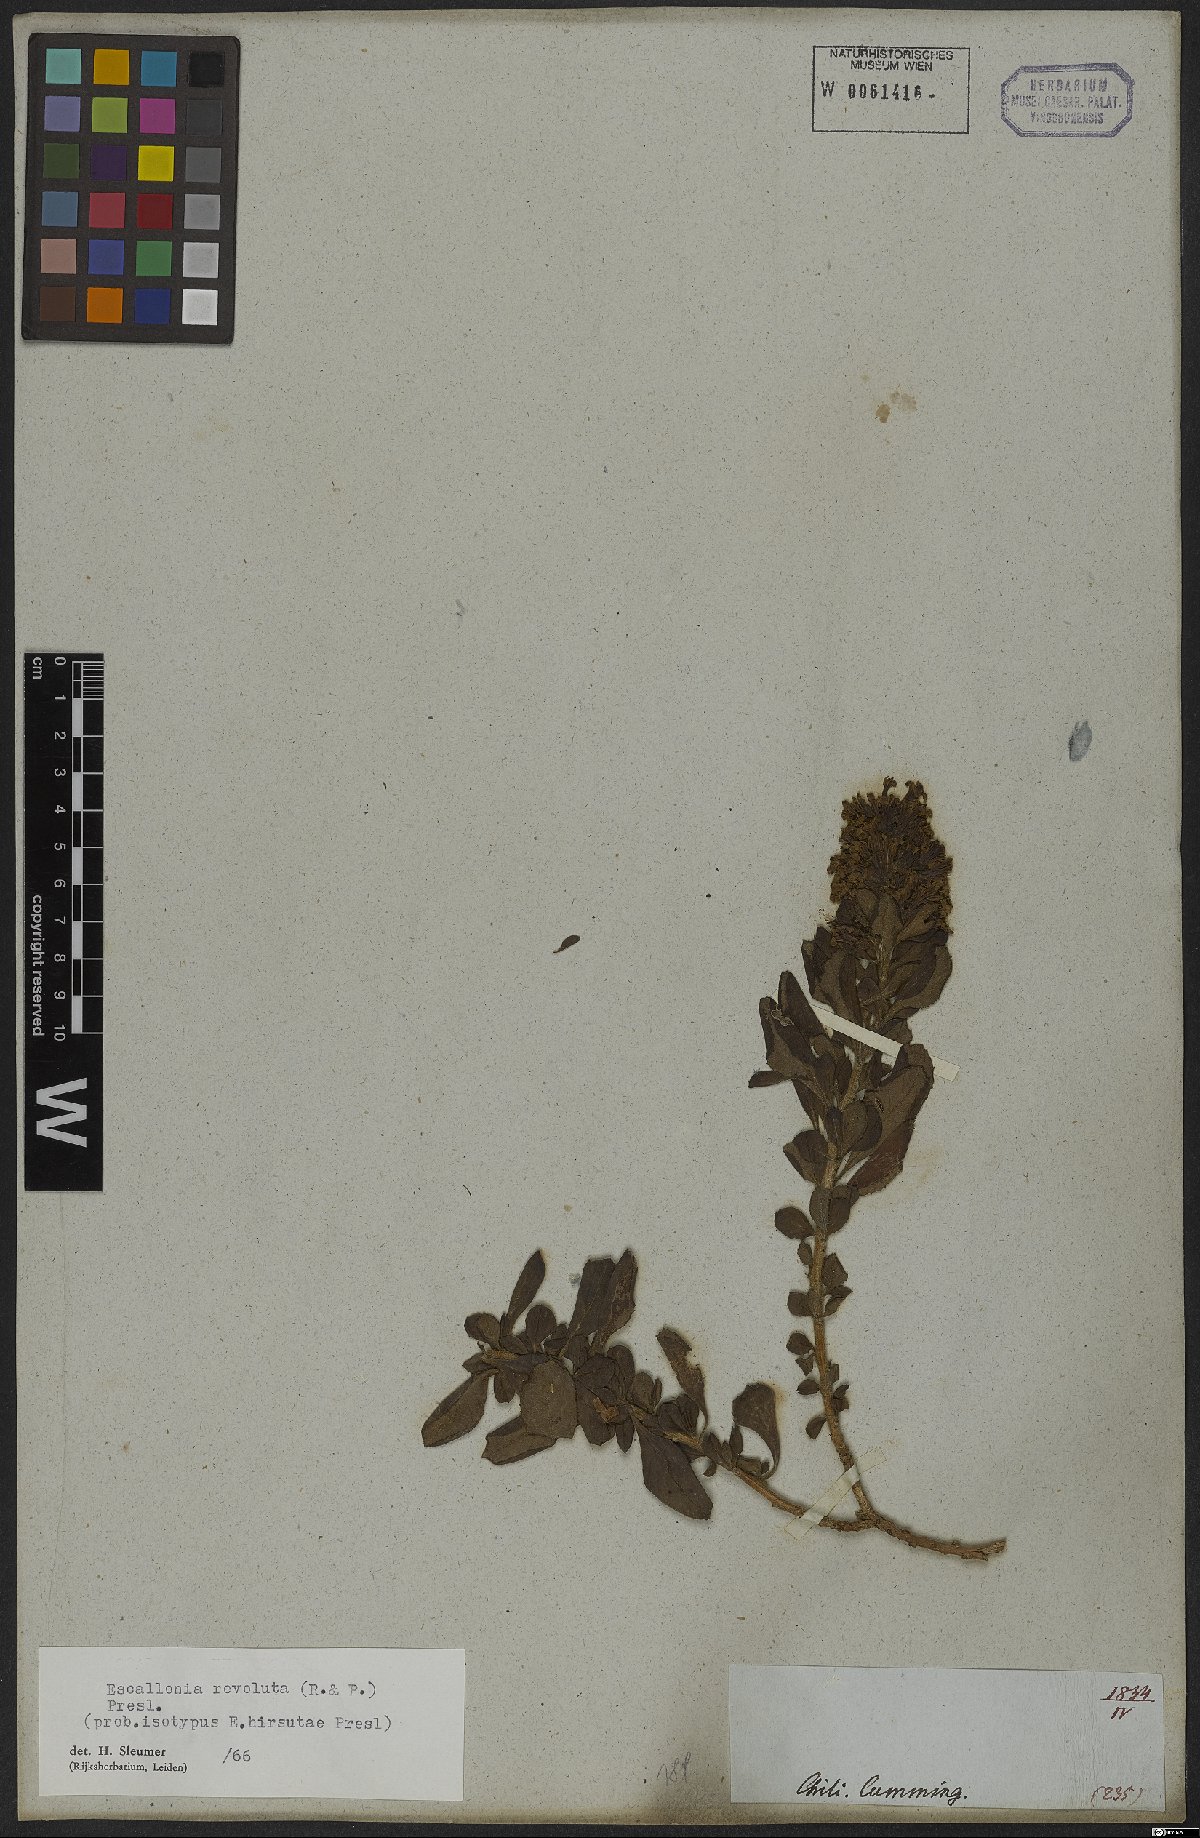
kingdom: Plantae
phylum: Tracheophyta
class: Magnoliopsida
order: Escalloniales
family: Escalloniaceae
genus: Escallonia
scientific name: Escallonia revoluta
